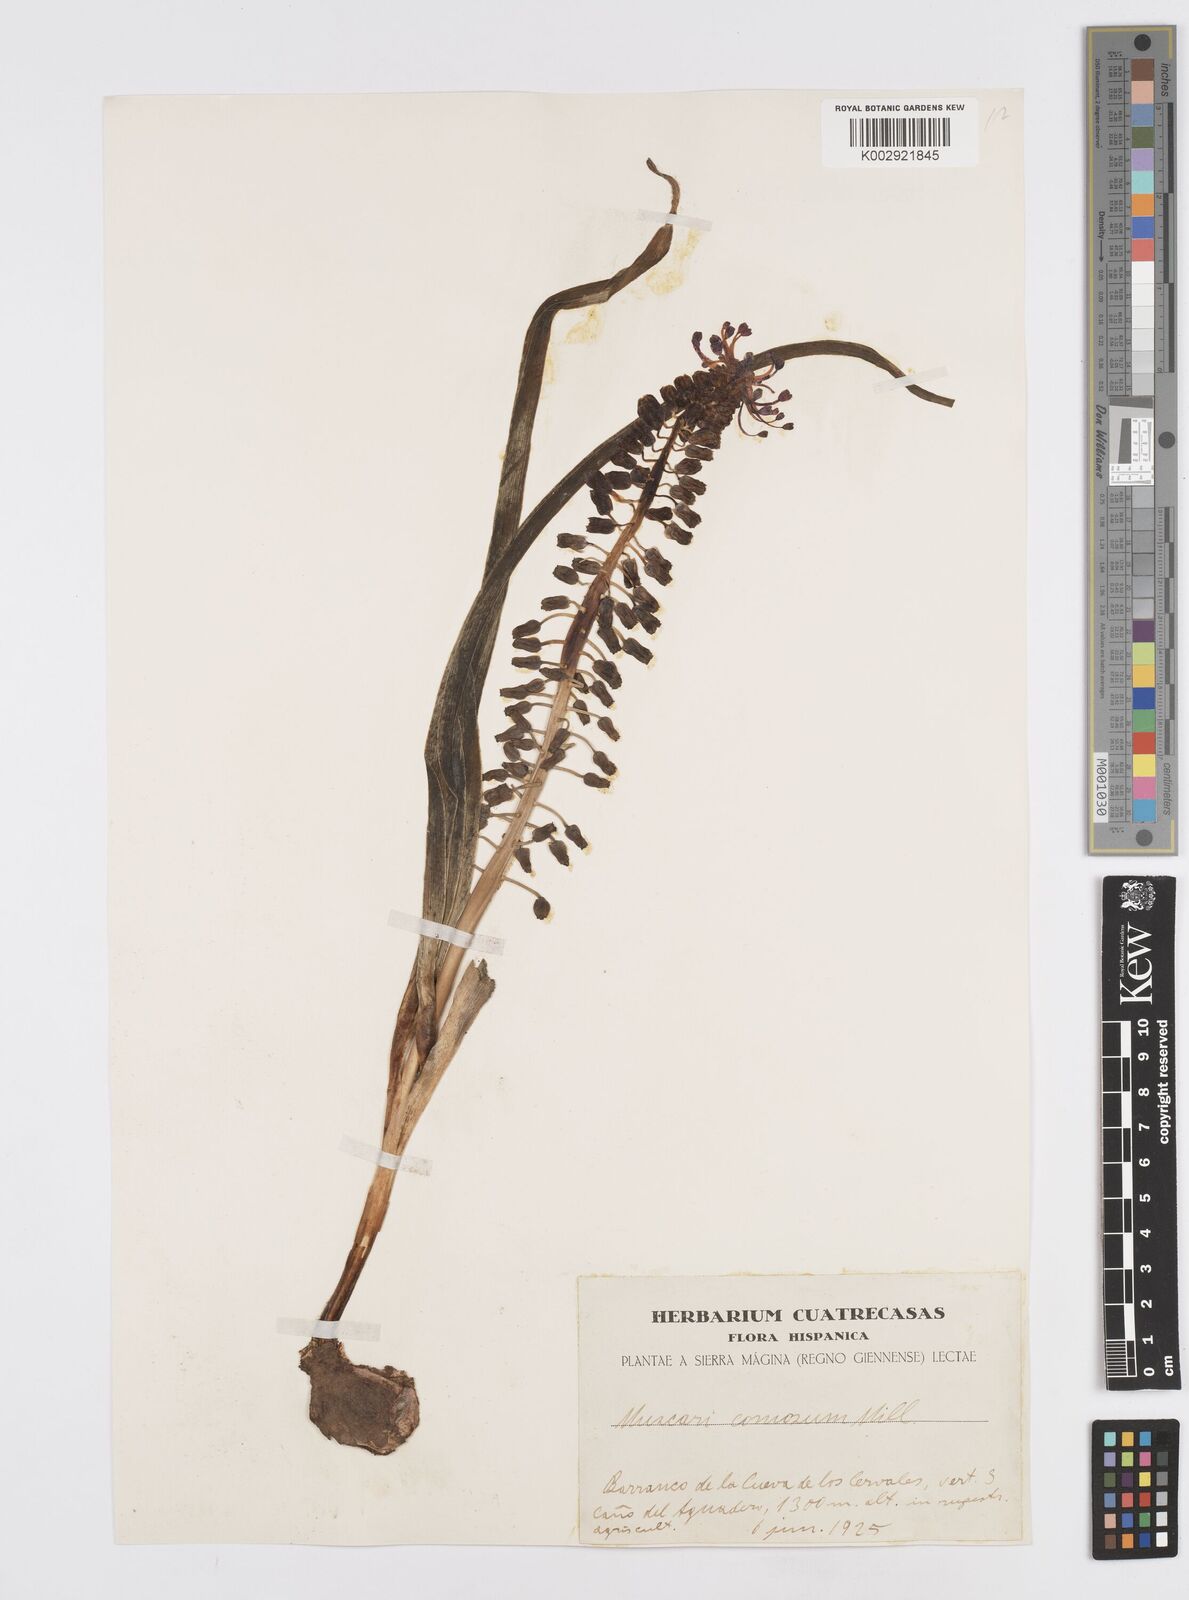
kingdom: Plantae
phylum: Tracheophyta
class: Liliopsida
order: Asparagales
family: Asparagaceae
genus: Muscari
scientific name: Muscari comosum
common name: Tassel hyacinth
